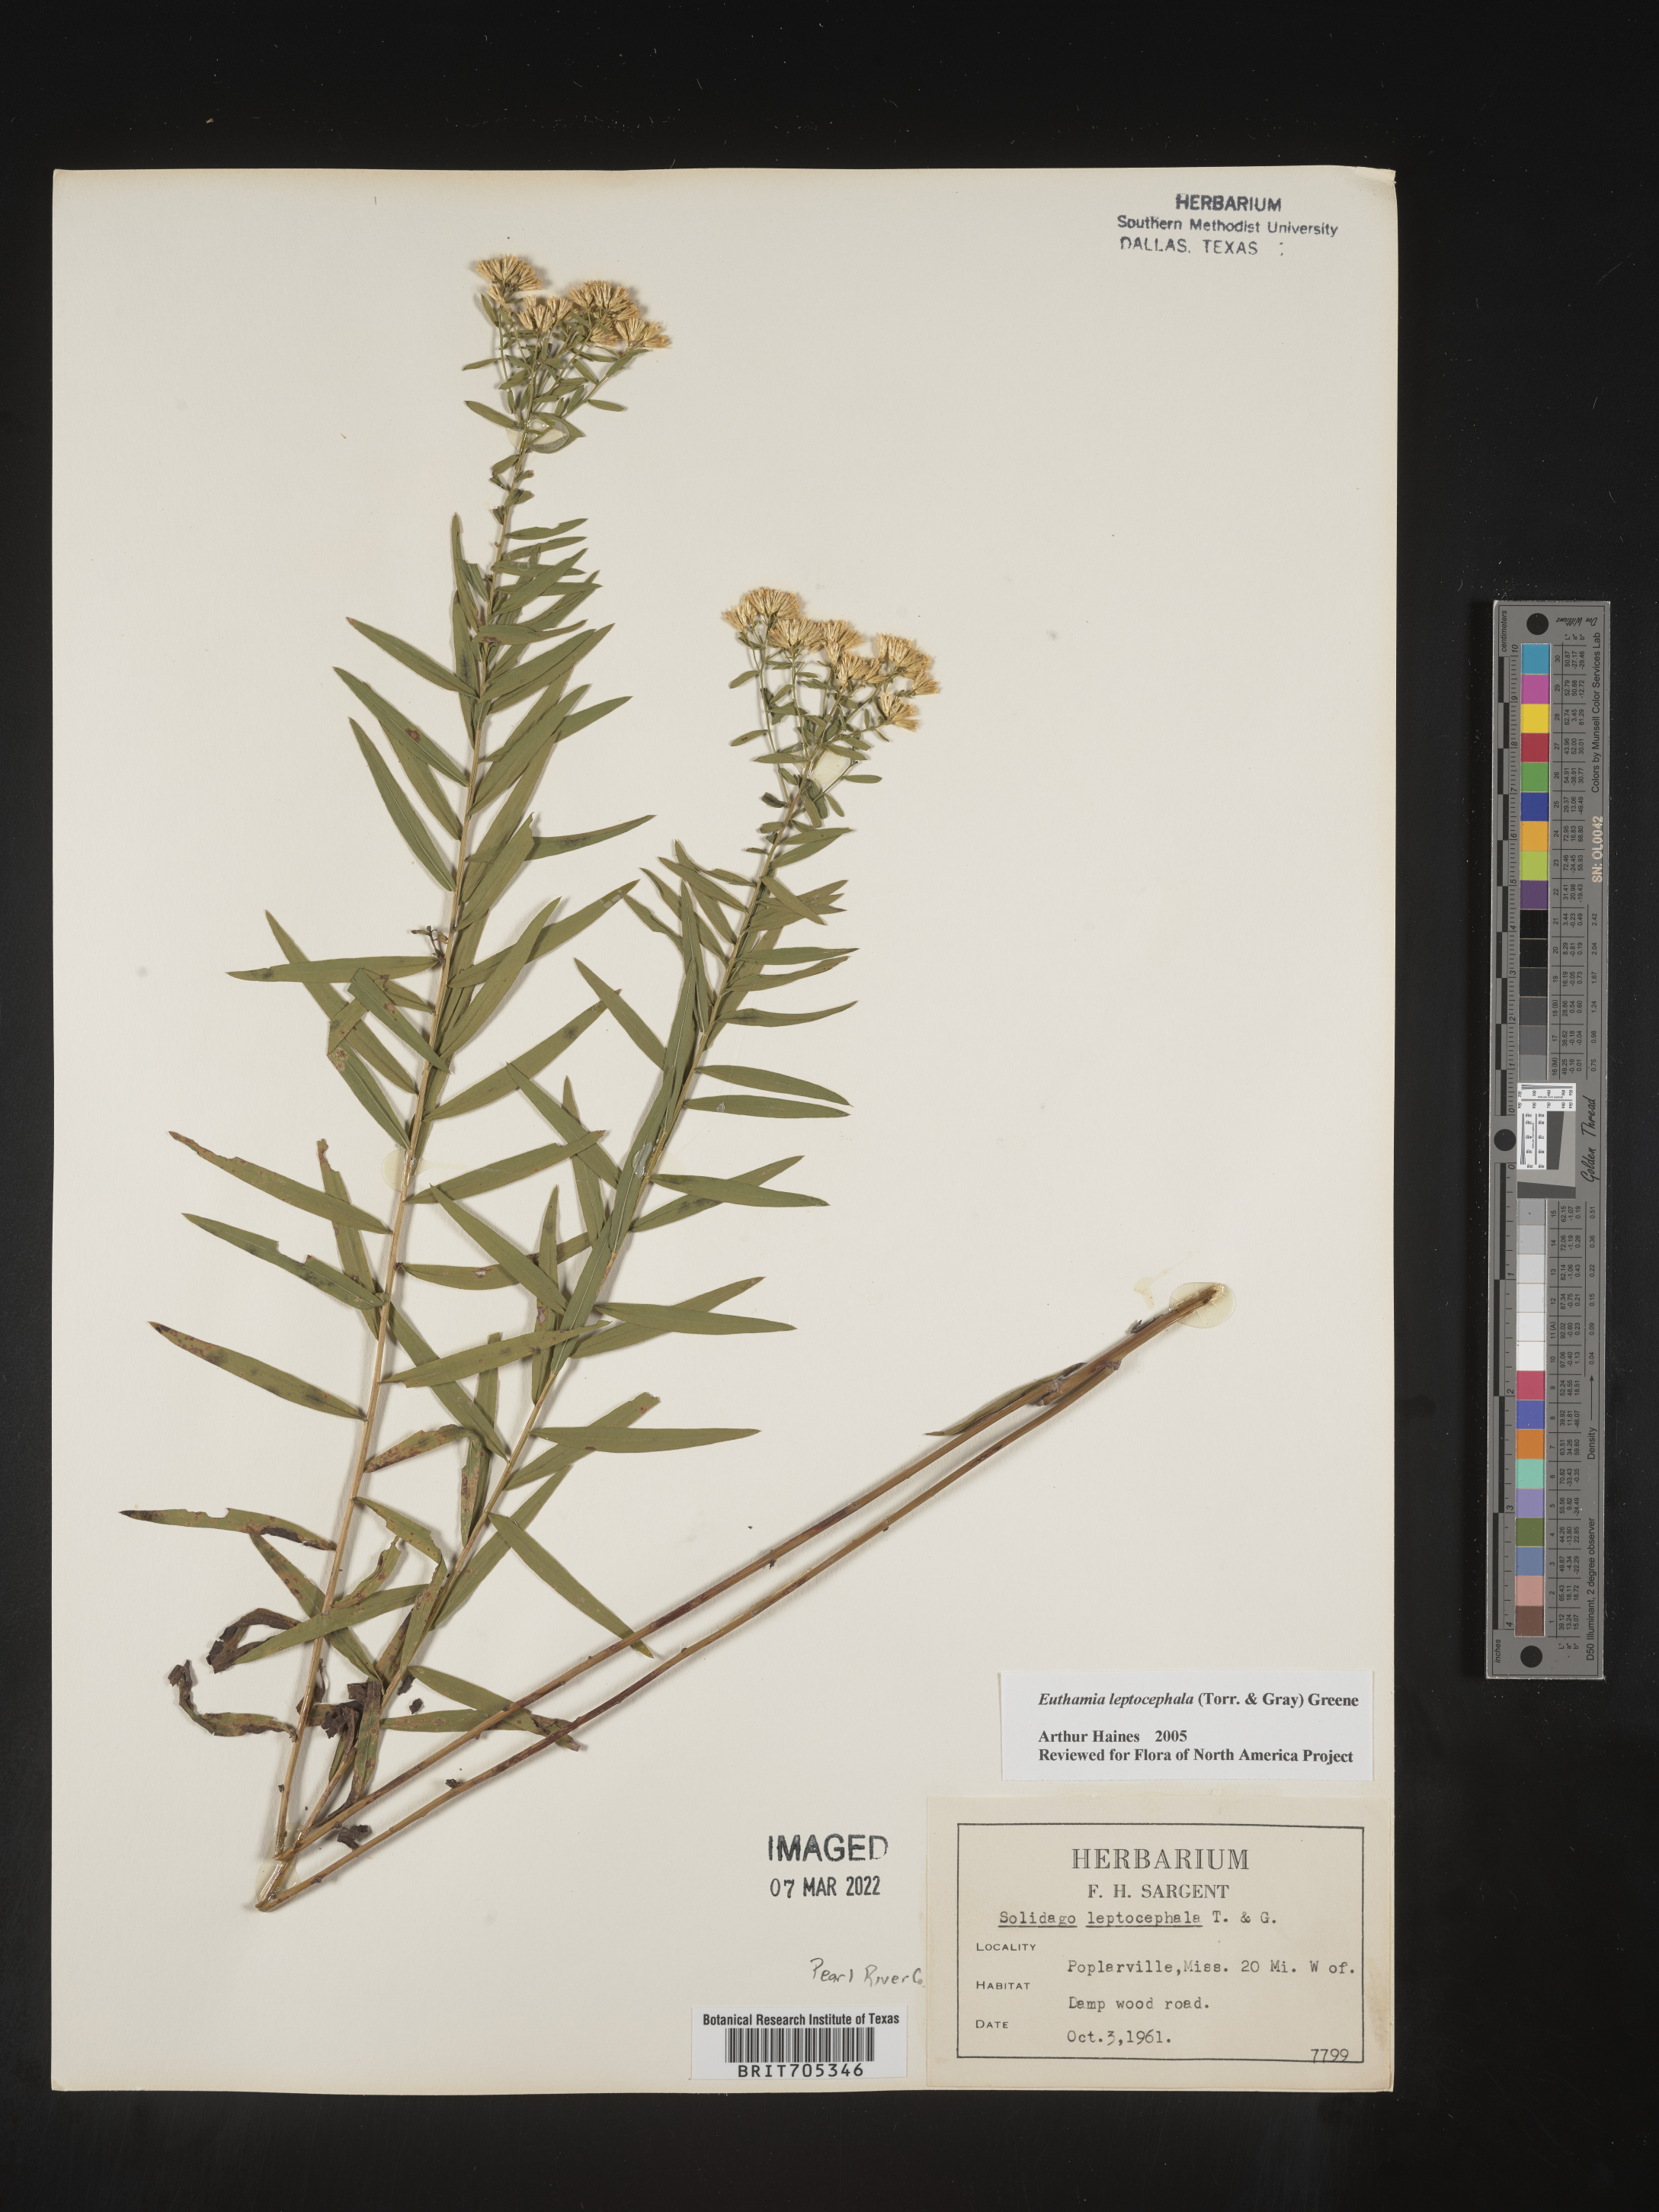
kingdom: Plantae
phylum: Tracheophyta
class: Magnoliopsida
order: Asterales
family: Asteraceae
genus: Euthamia
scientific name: Euthamia leptocephala
